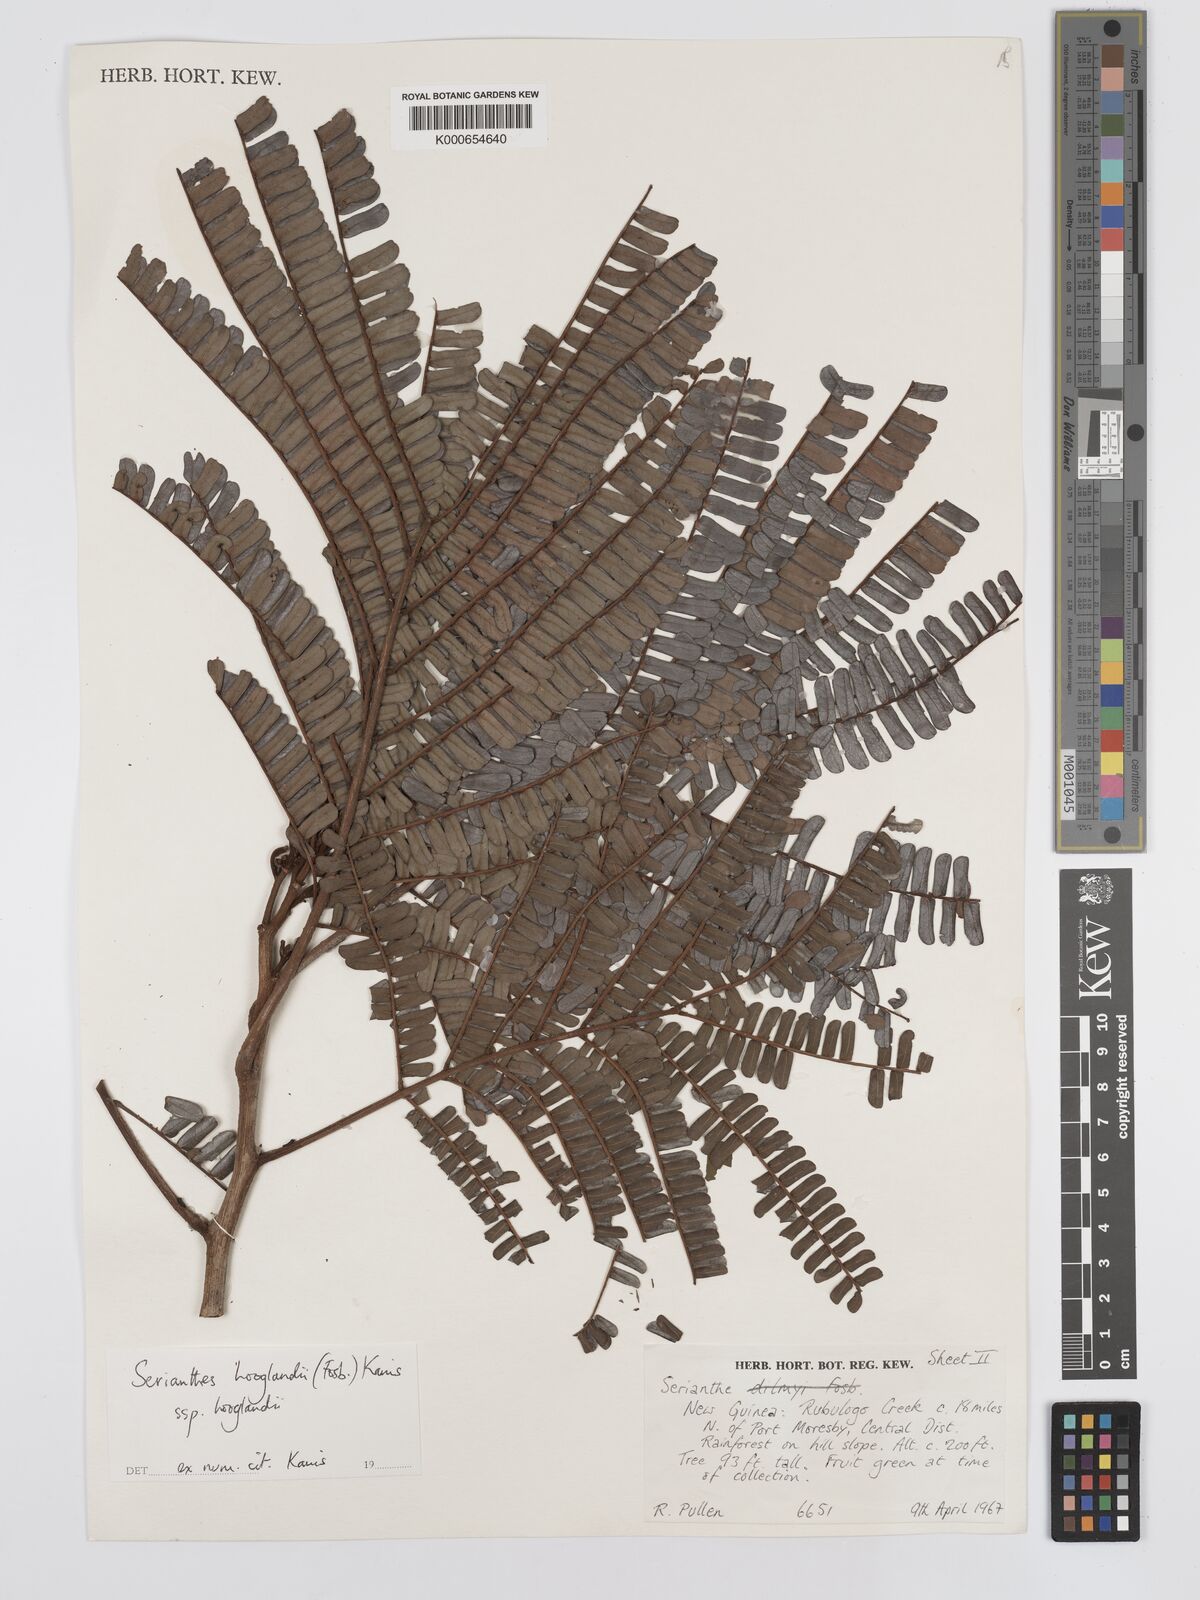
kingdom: Plantae
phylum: Tracheophyta
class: Magnoliopsida
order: Fabales
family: Fabaceae
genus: Serianthes
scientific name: Serianthes hooglandii
